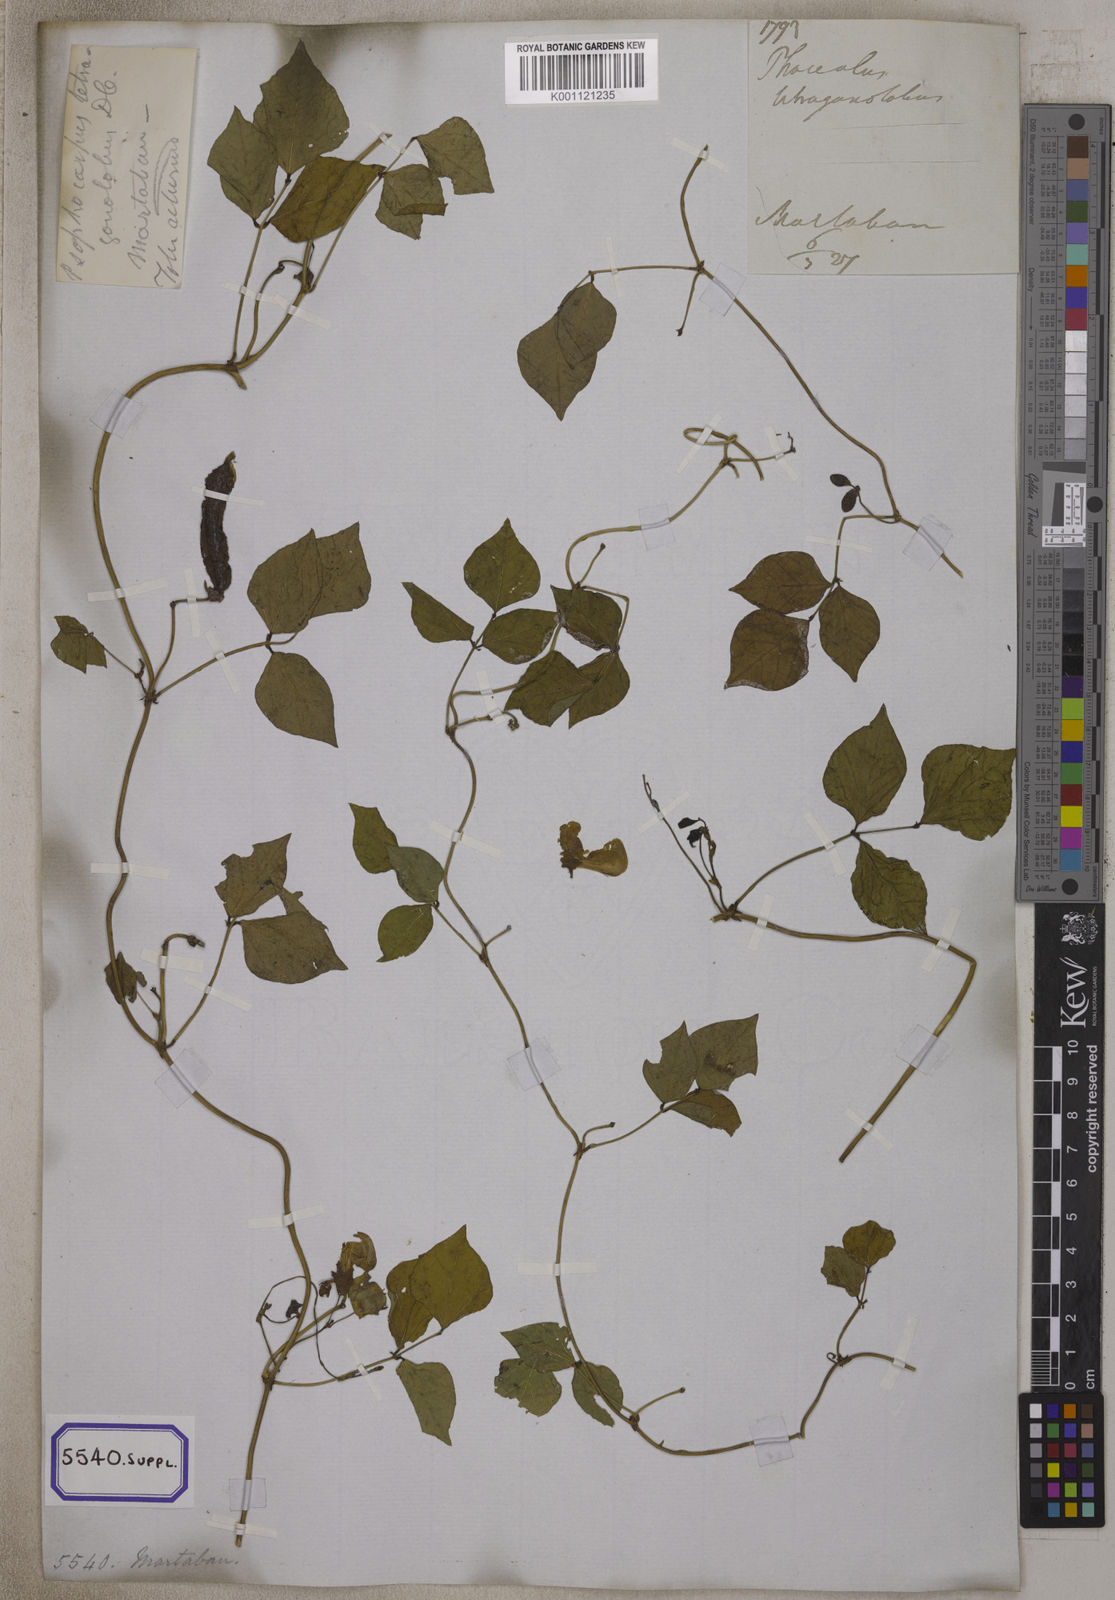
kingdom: Plantae
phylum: Tracheophyta
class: Magnoliopsida
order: Fabales
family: Fabaceae
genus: Psophocarpus
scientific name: Psophocarpus tetragonolobus
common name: Goa-bean
